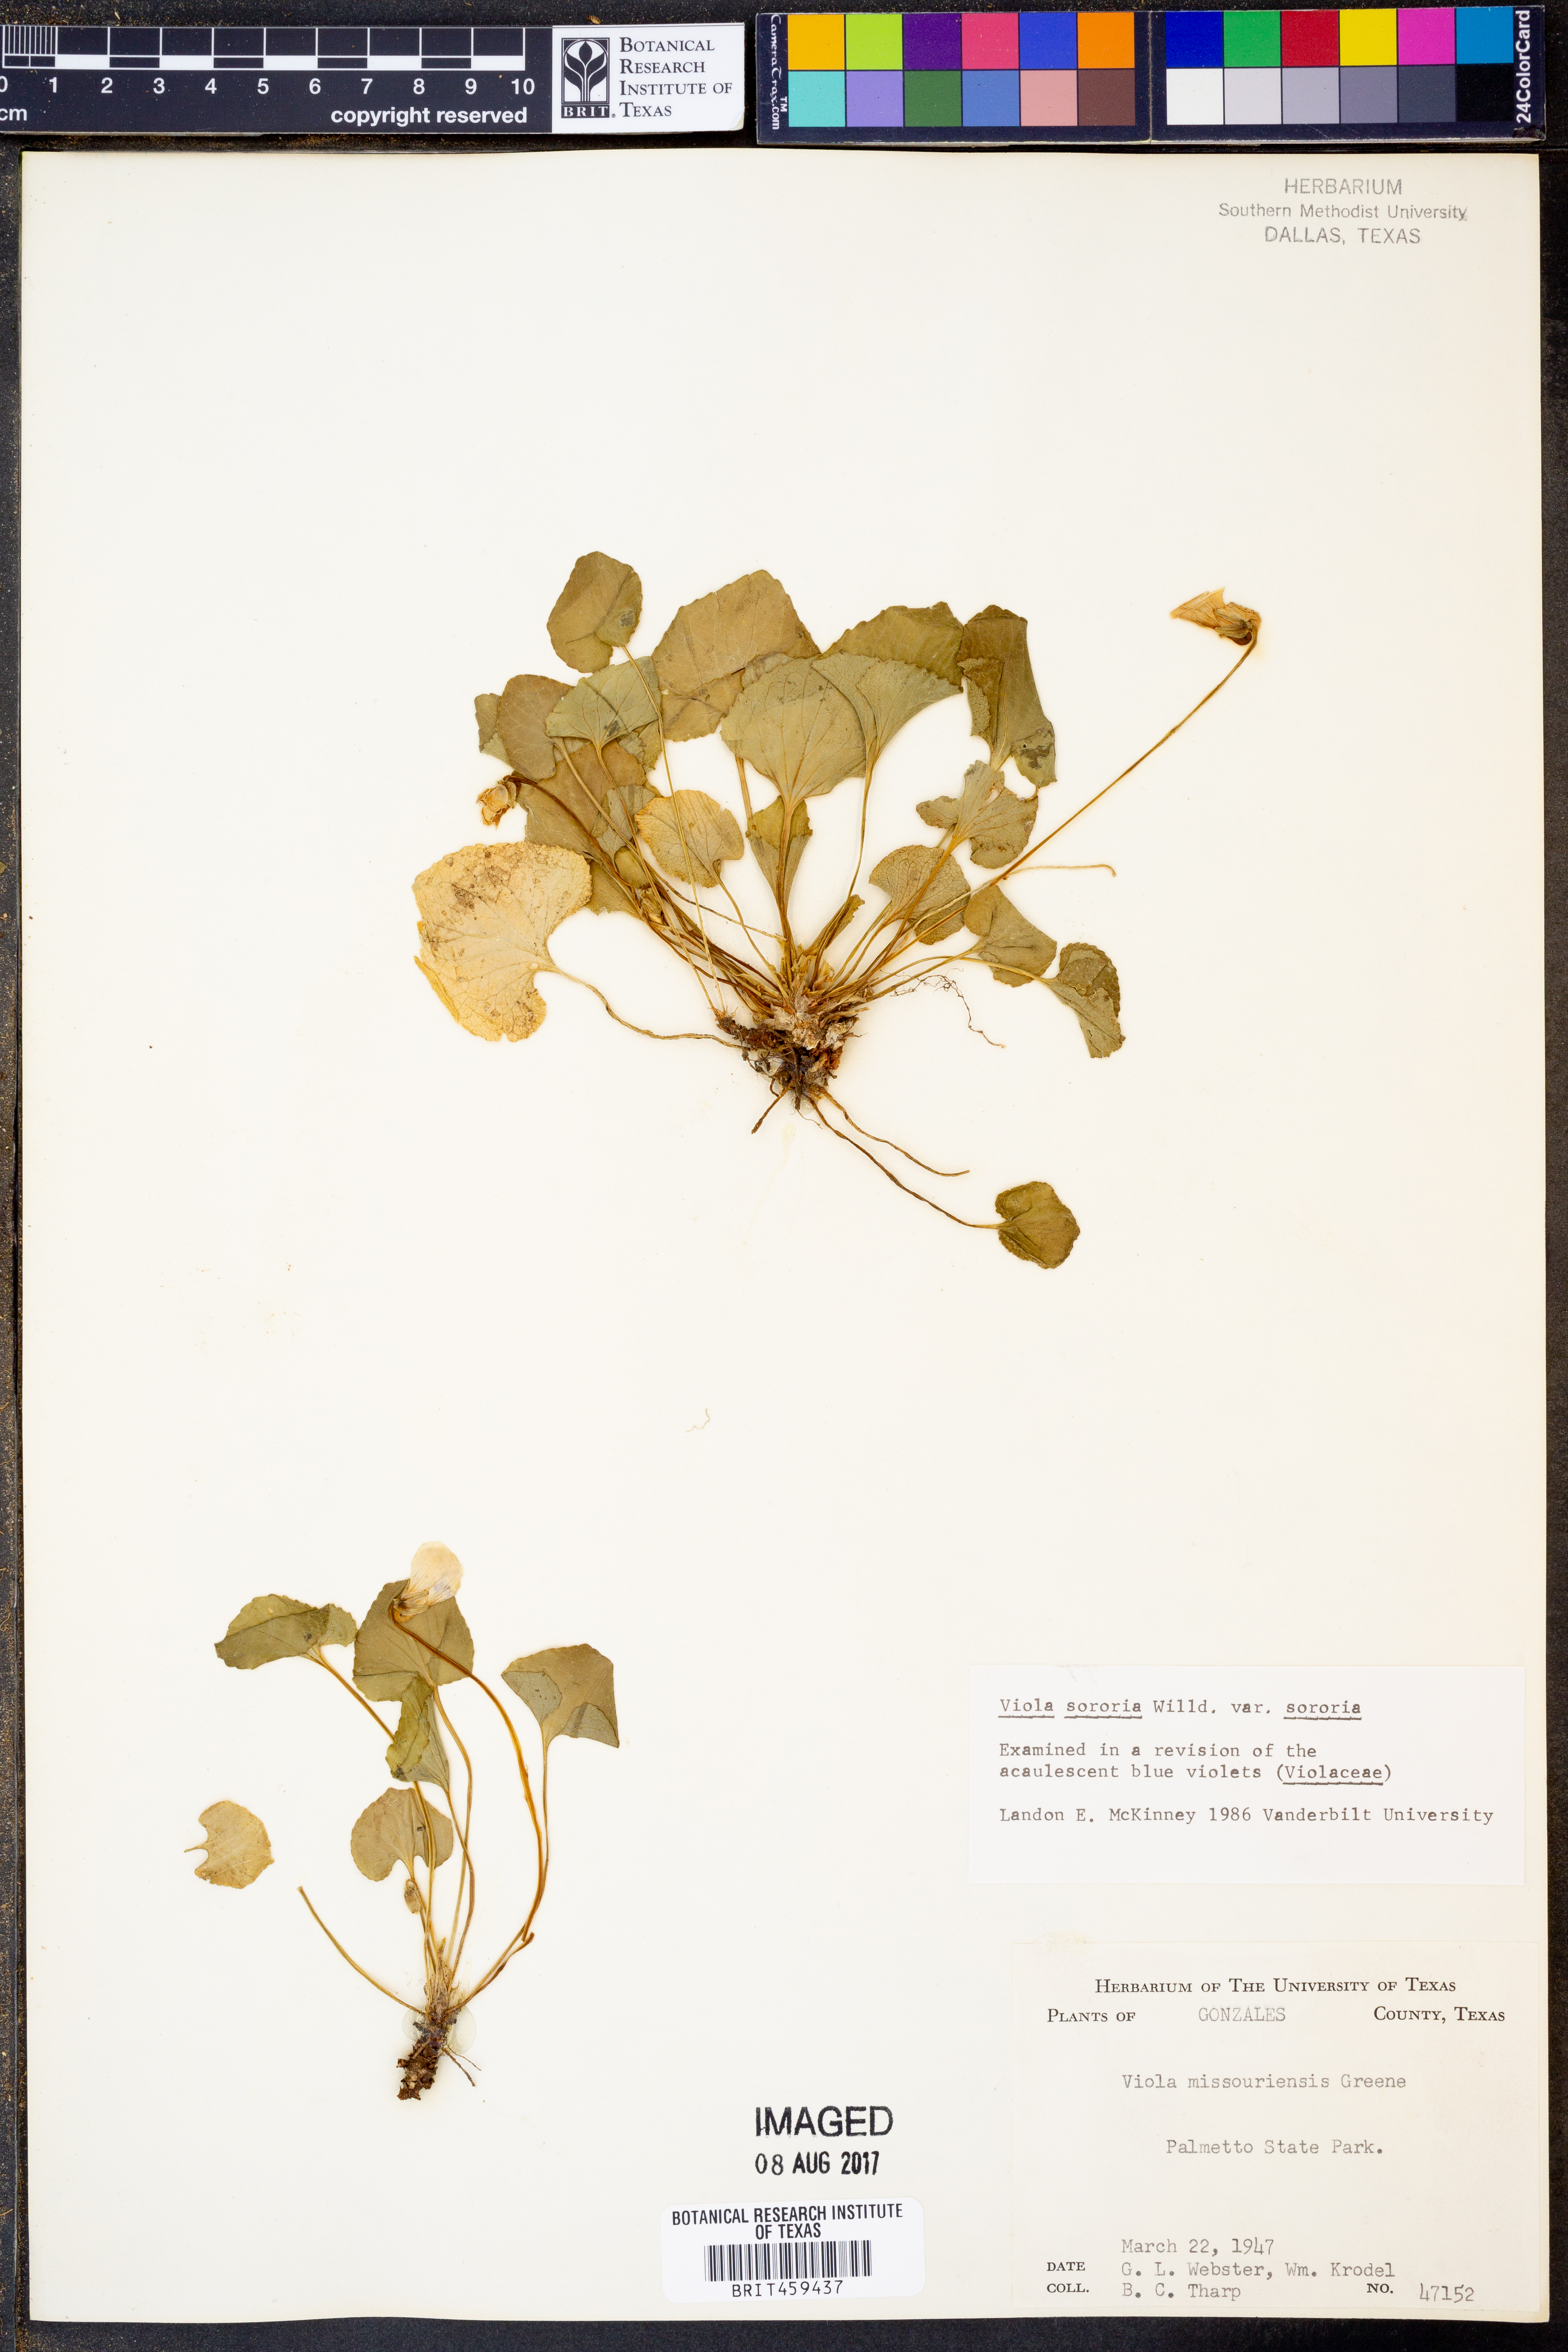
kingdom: Plantae
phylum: Tracheophyta
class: Magnoliopsida
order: Malpighiales
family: Violaceae
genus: Viola
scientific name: Viola sororia
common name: Dooryard violet
